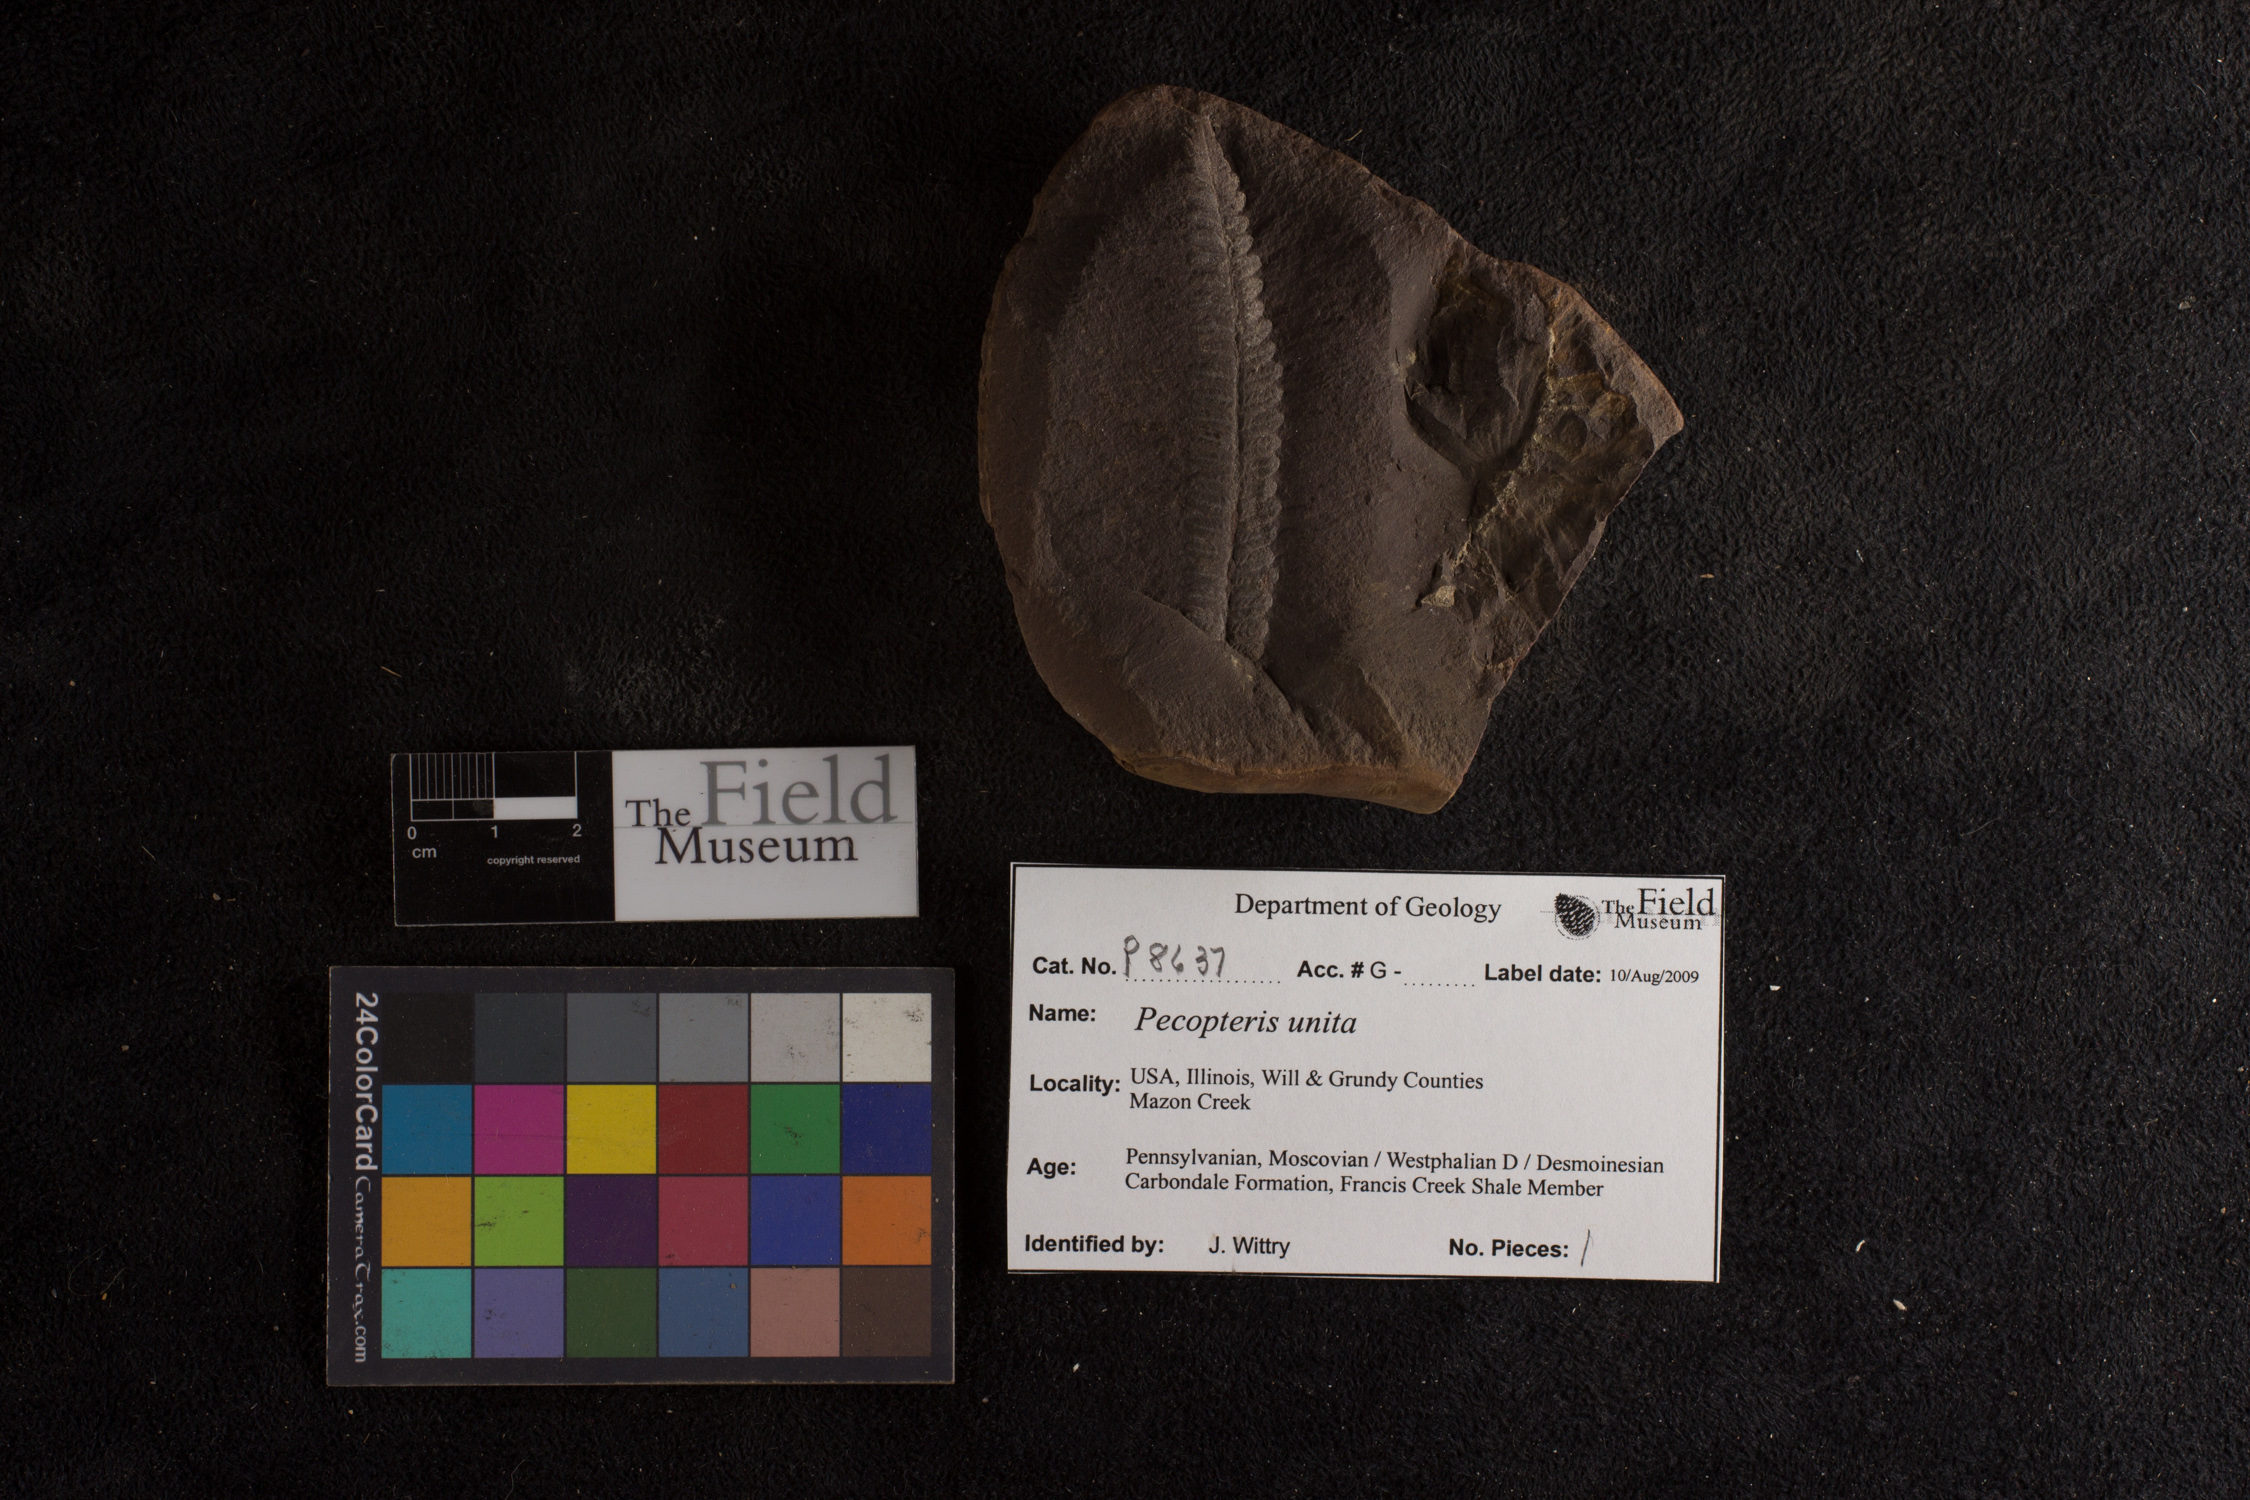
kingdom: Plantae
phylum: Tracheophyta
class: Polypodiopsida
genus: Diplazites
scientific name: Diplazites
